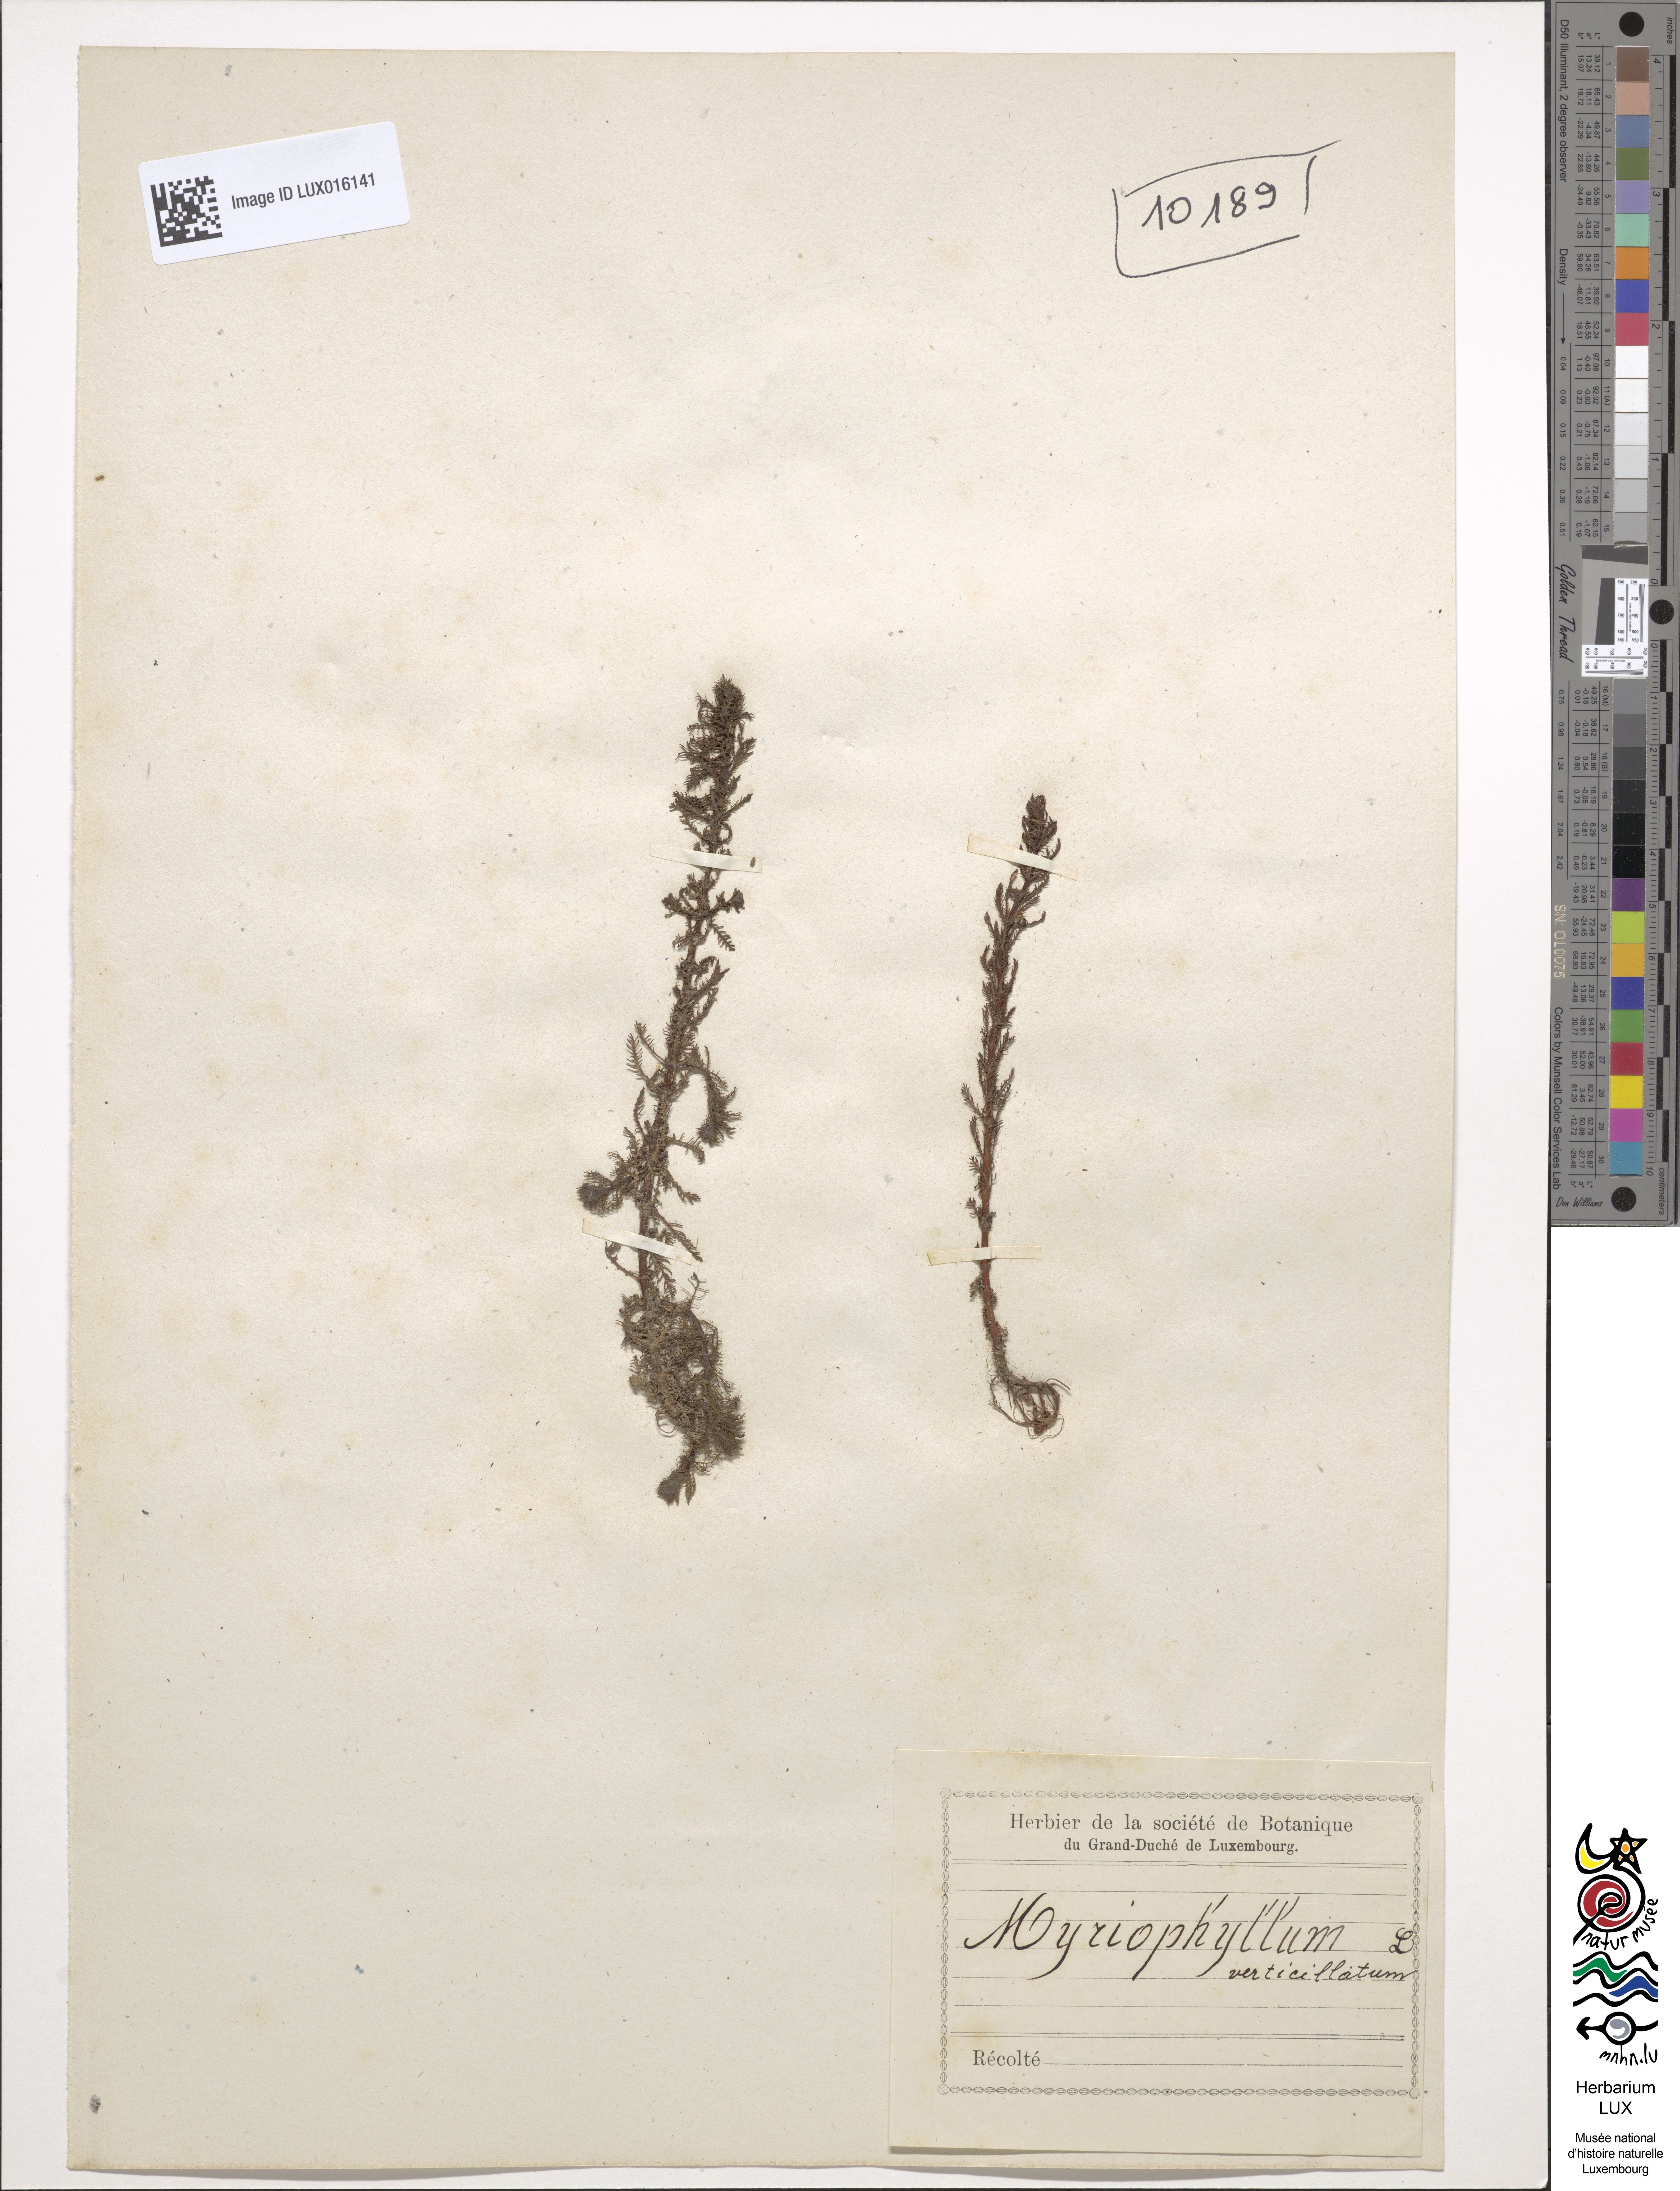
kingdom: Plantae
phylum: Rhodophyta
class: Florideophyceae
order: Rhodymeniales
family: Rhodymeniaceae
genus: Botryocladia
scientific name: Botryocladia
